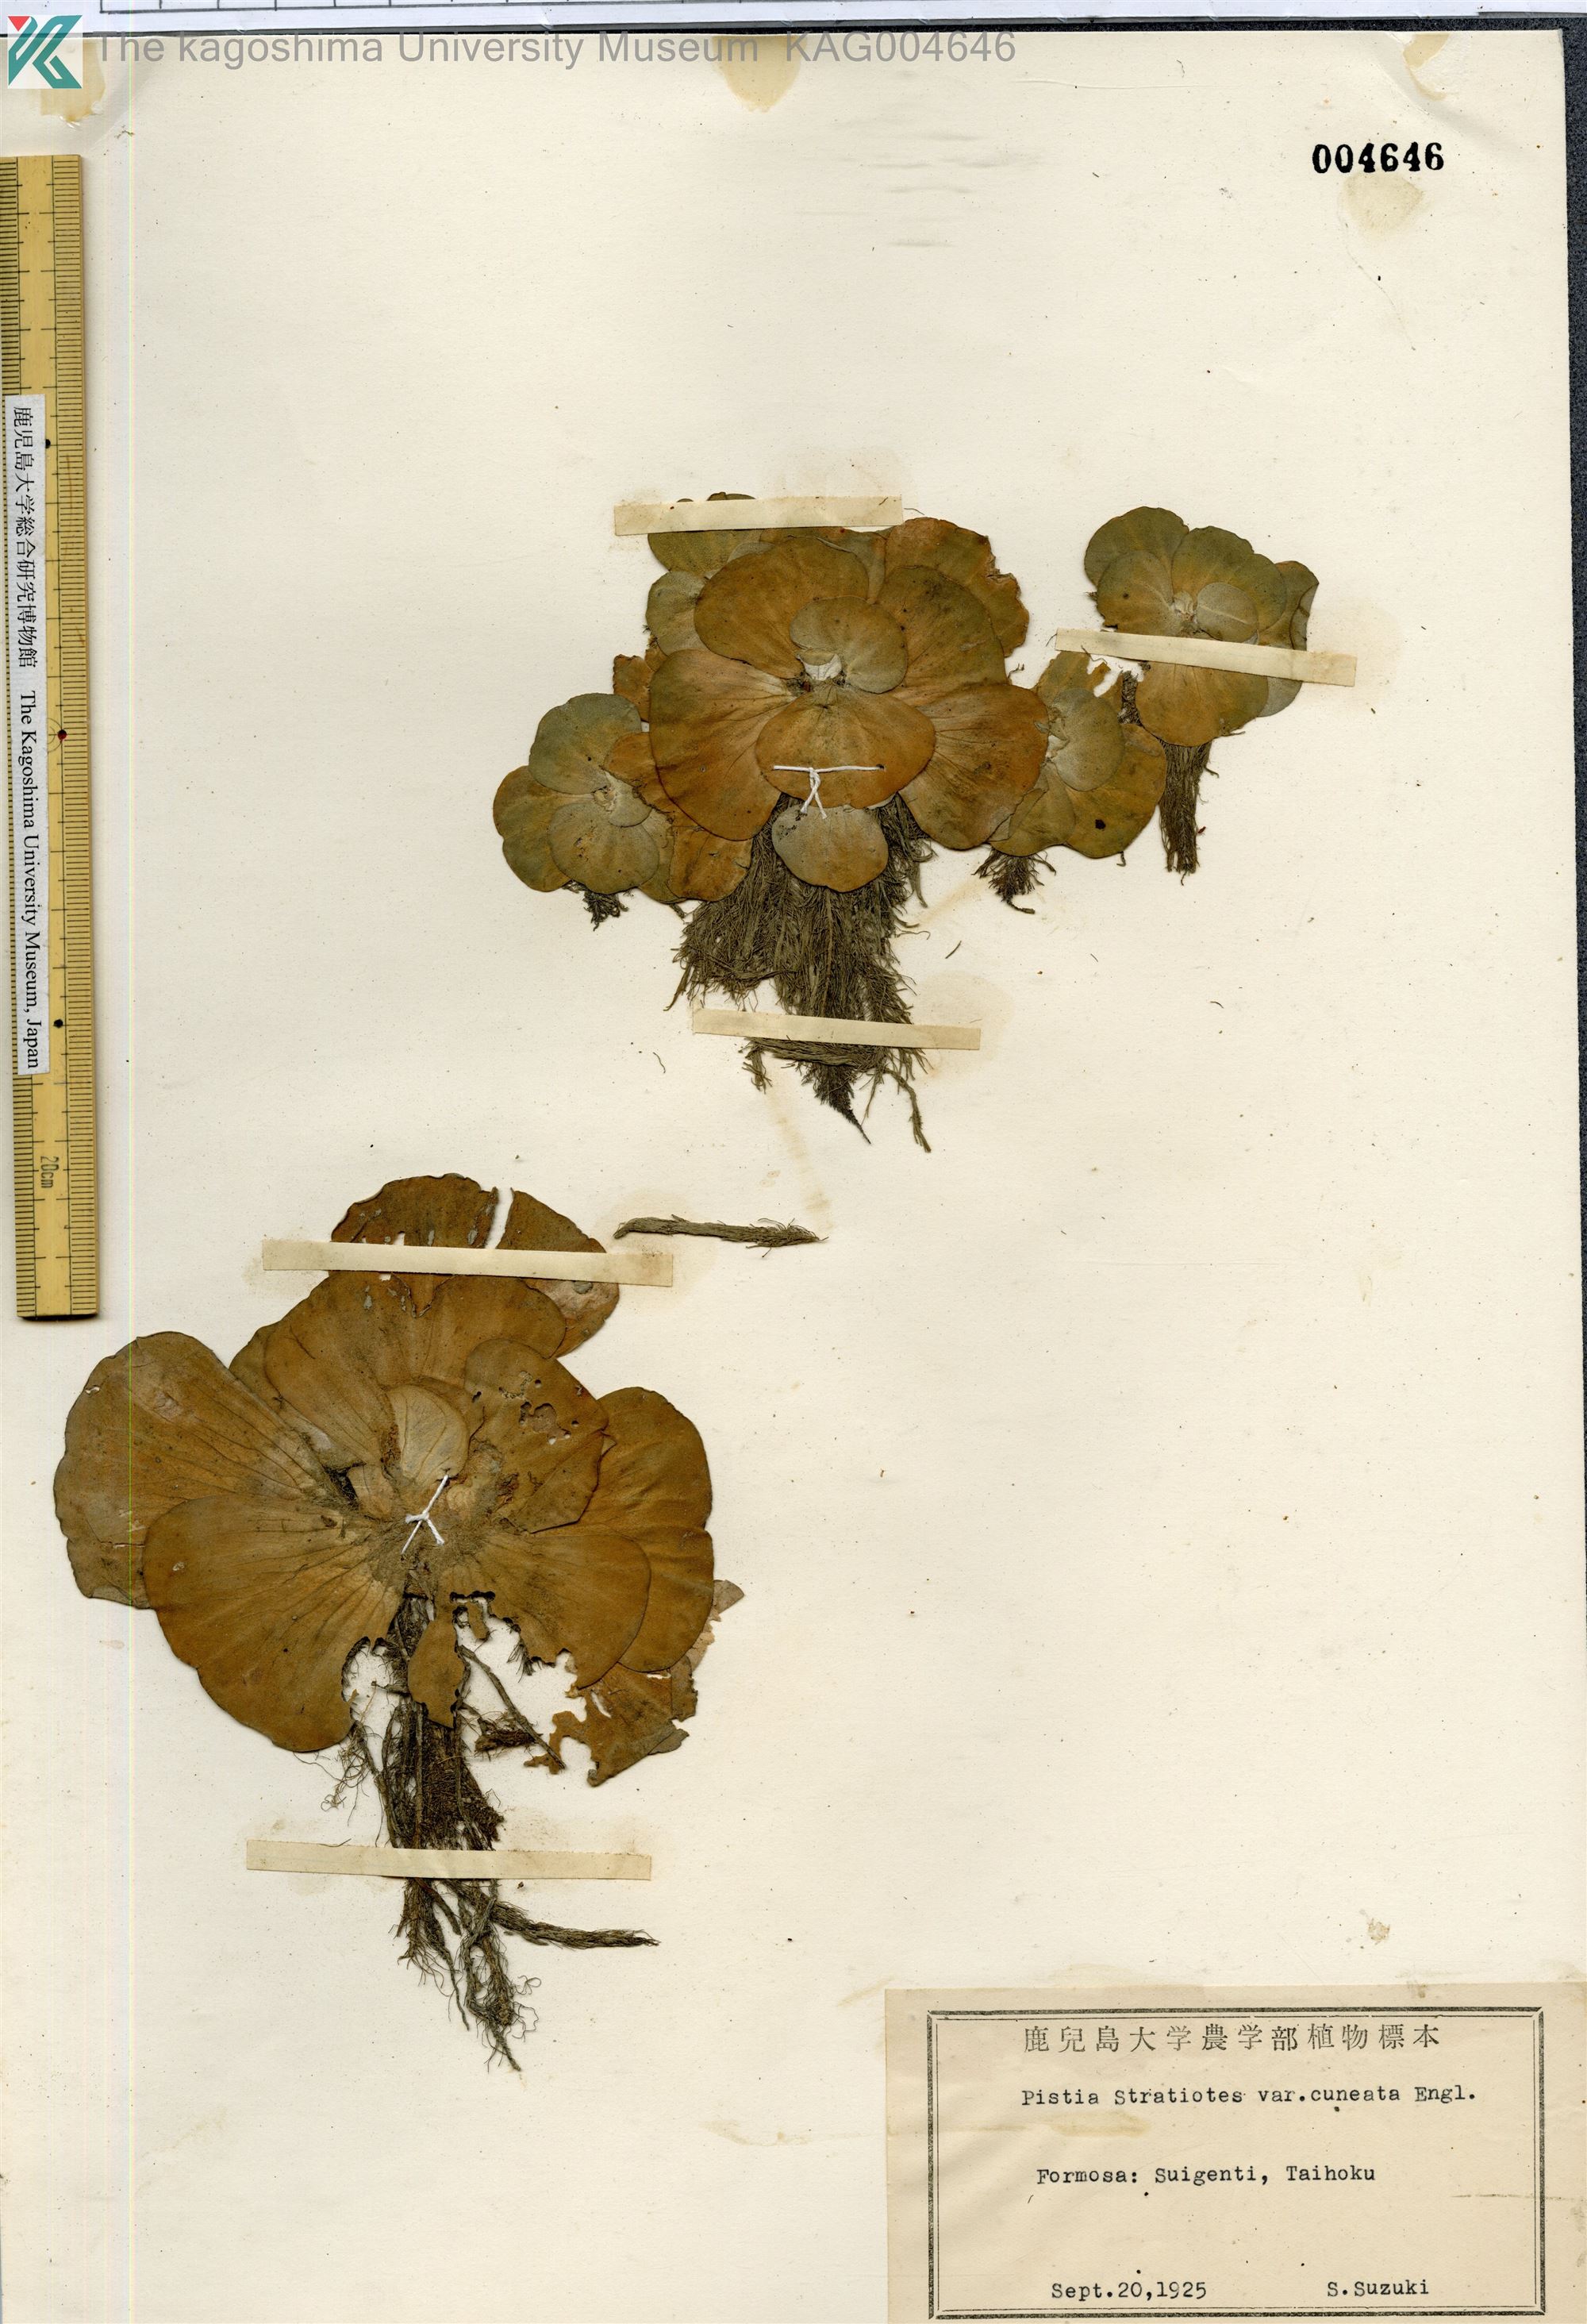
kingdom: Plantae
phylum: Tracheophyta
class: Liliopsida
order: Alismatales
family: Araceae
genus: Pistia
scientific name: Pistia stratiotes
